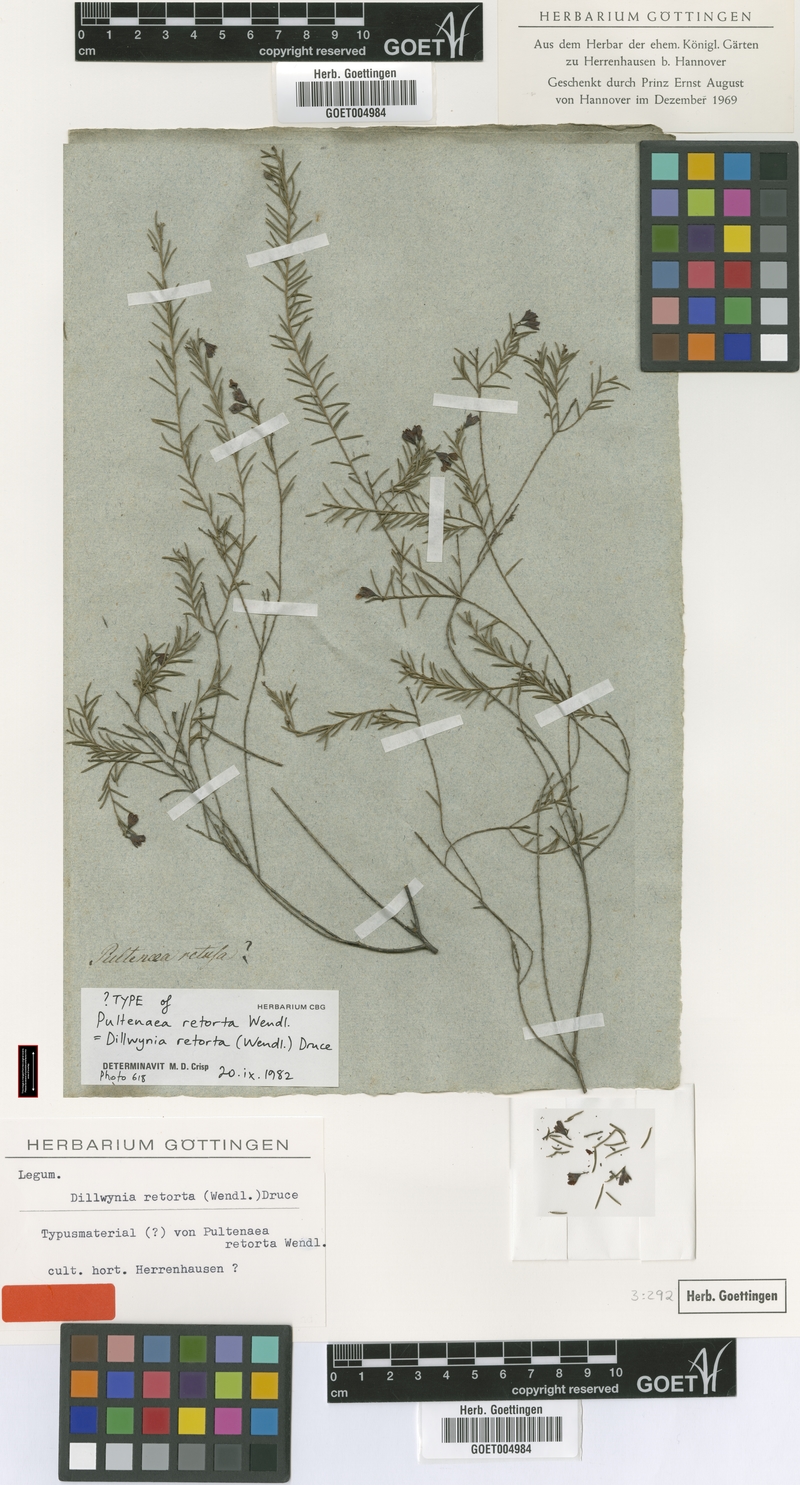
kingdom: Plantae
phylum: Tracheophyta
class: Magnoliopsida
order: Fabales
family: Fabaceae
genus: Dillwynia
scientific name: Dillwynia retorta
